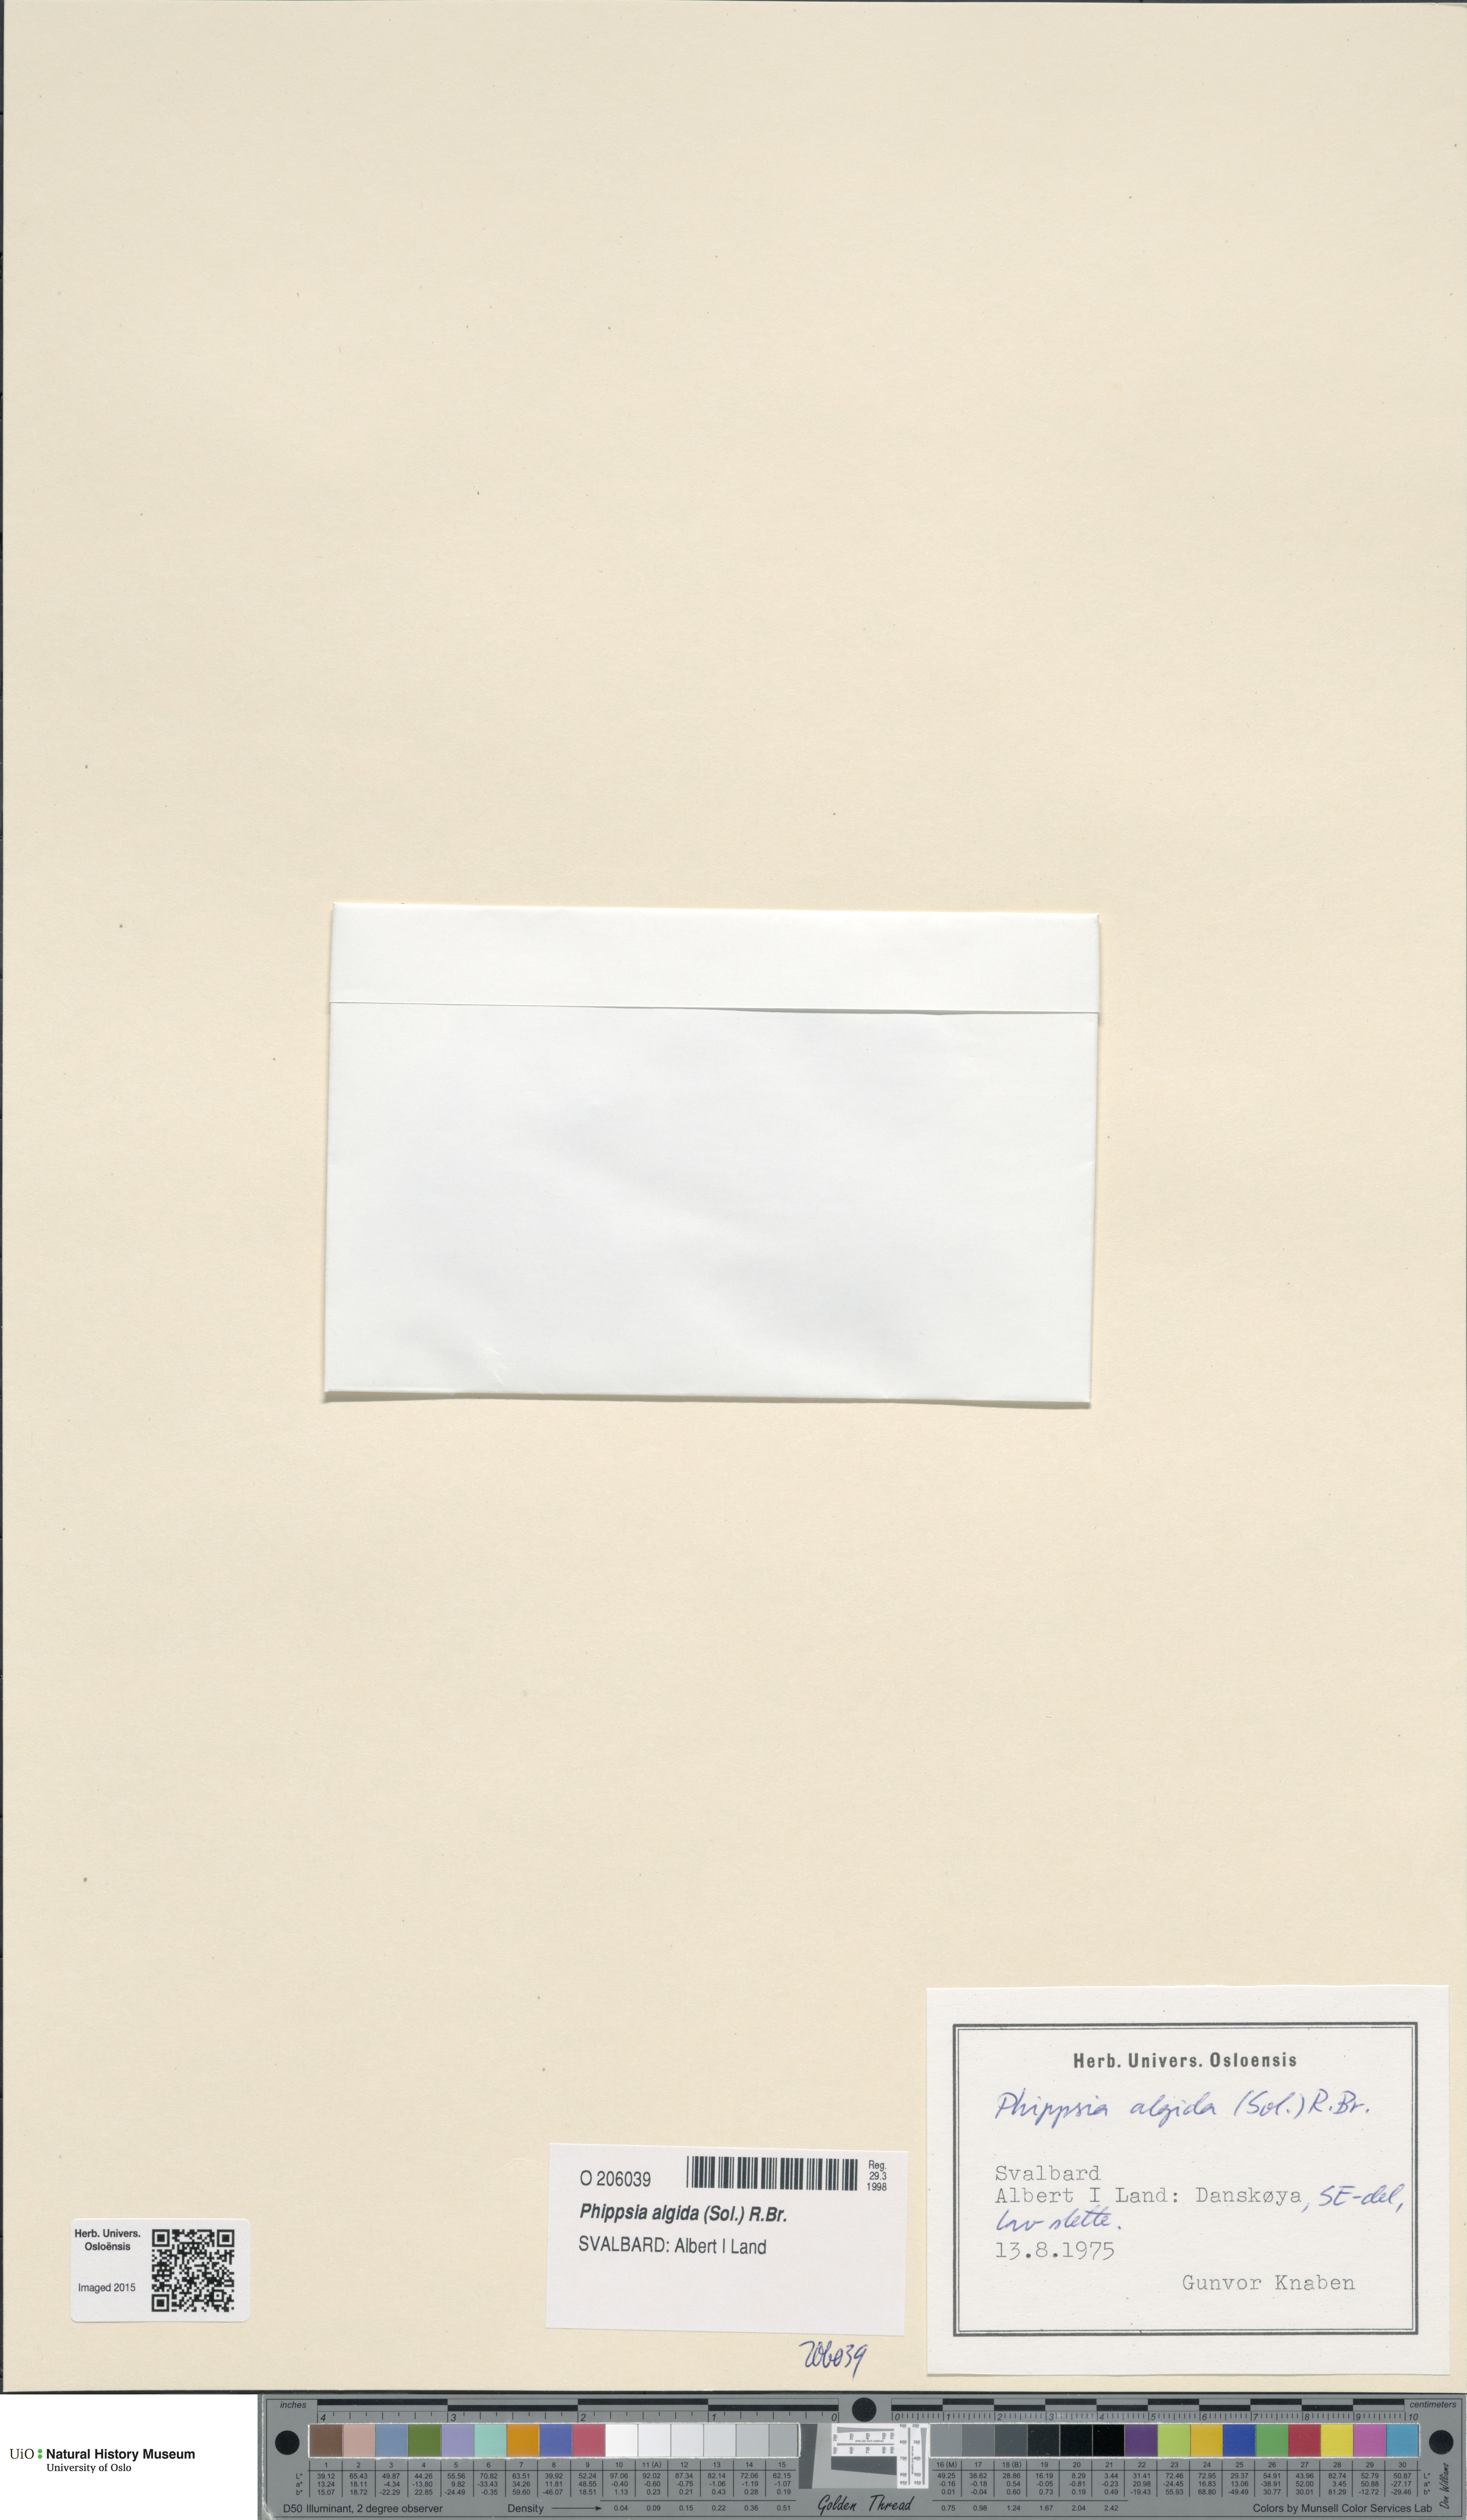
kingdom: Plantae
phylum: Tracheophyta
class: Liliopsida
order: Poales
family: Poaceae
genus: Phippsia
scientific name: Phippsia algida
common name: Ice grass
